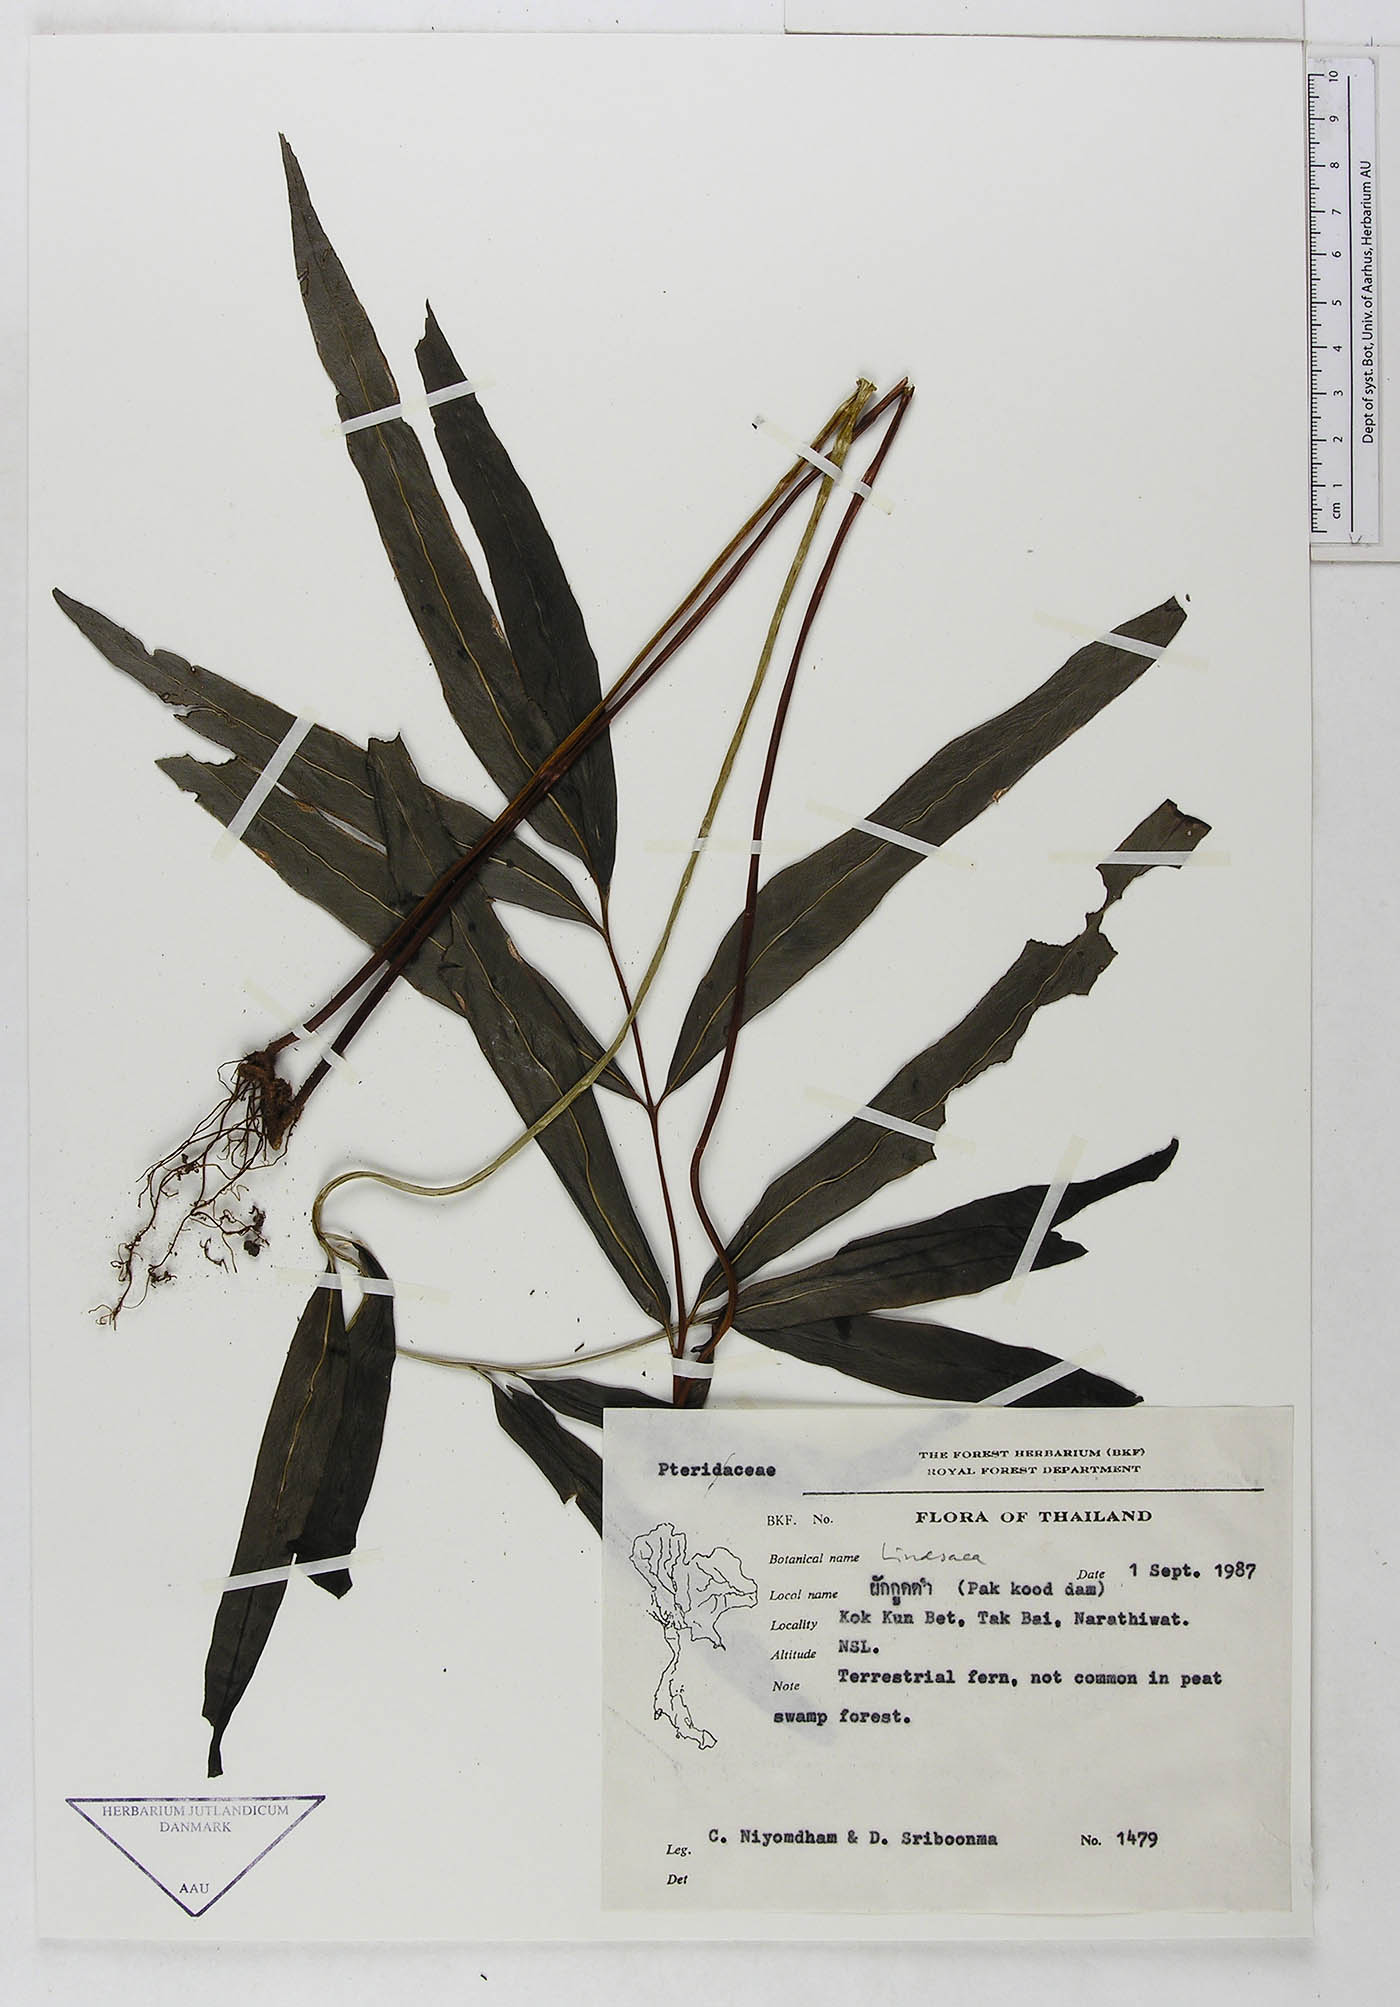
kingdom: Plantae
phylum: Tracheophyta
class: Polypodiopsida
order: Polypodiales
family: Dennstaedtiaceae
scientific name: Dennstaedtiaceae
